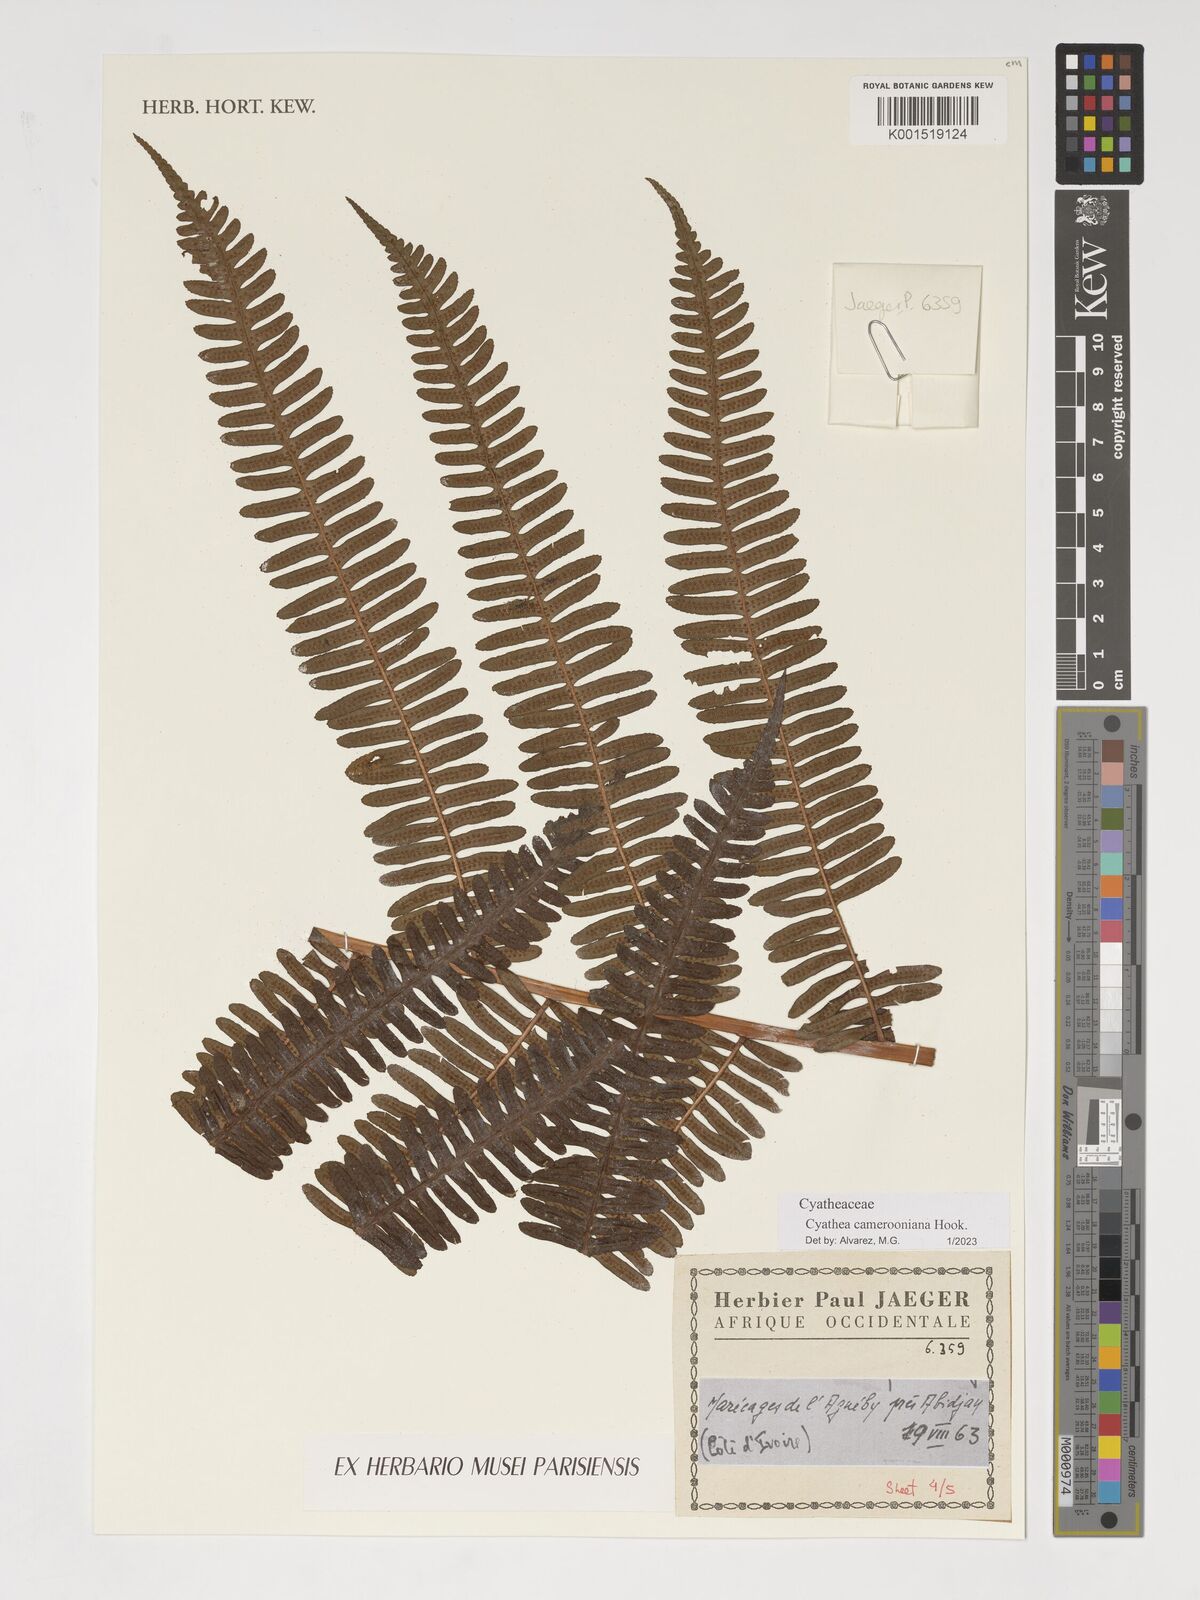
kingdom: Plantae
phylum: Tracheophyta
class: Polypodiopsida
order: Cyatheales
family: Cyatheaceae
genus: Alsophila
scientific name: Alsophila camerooniana
